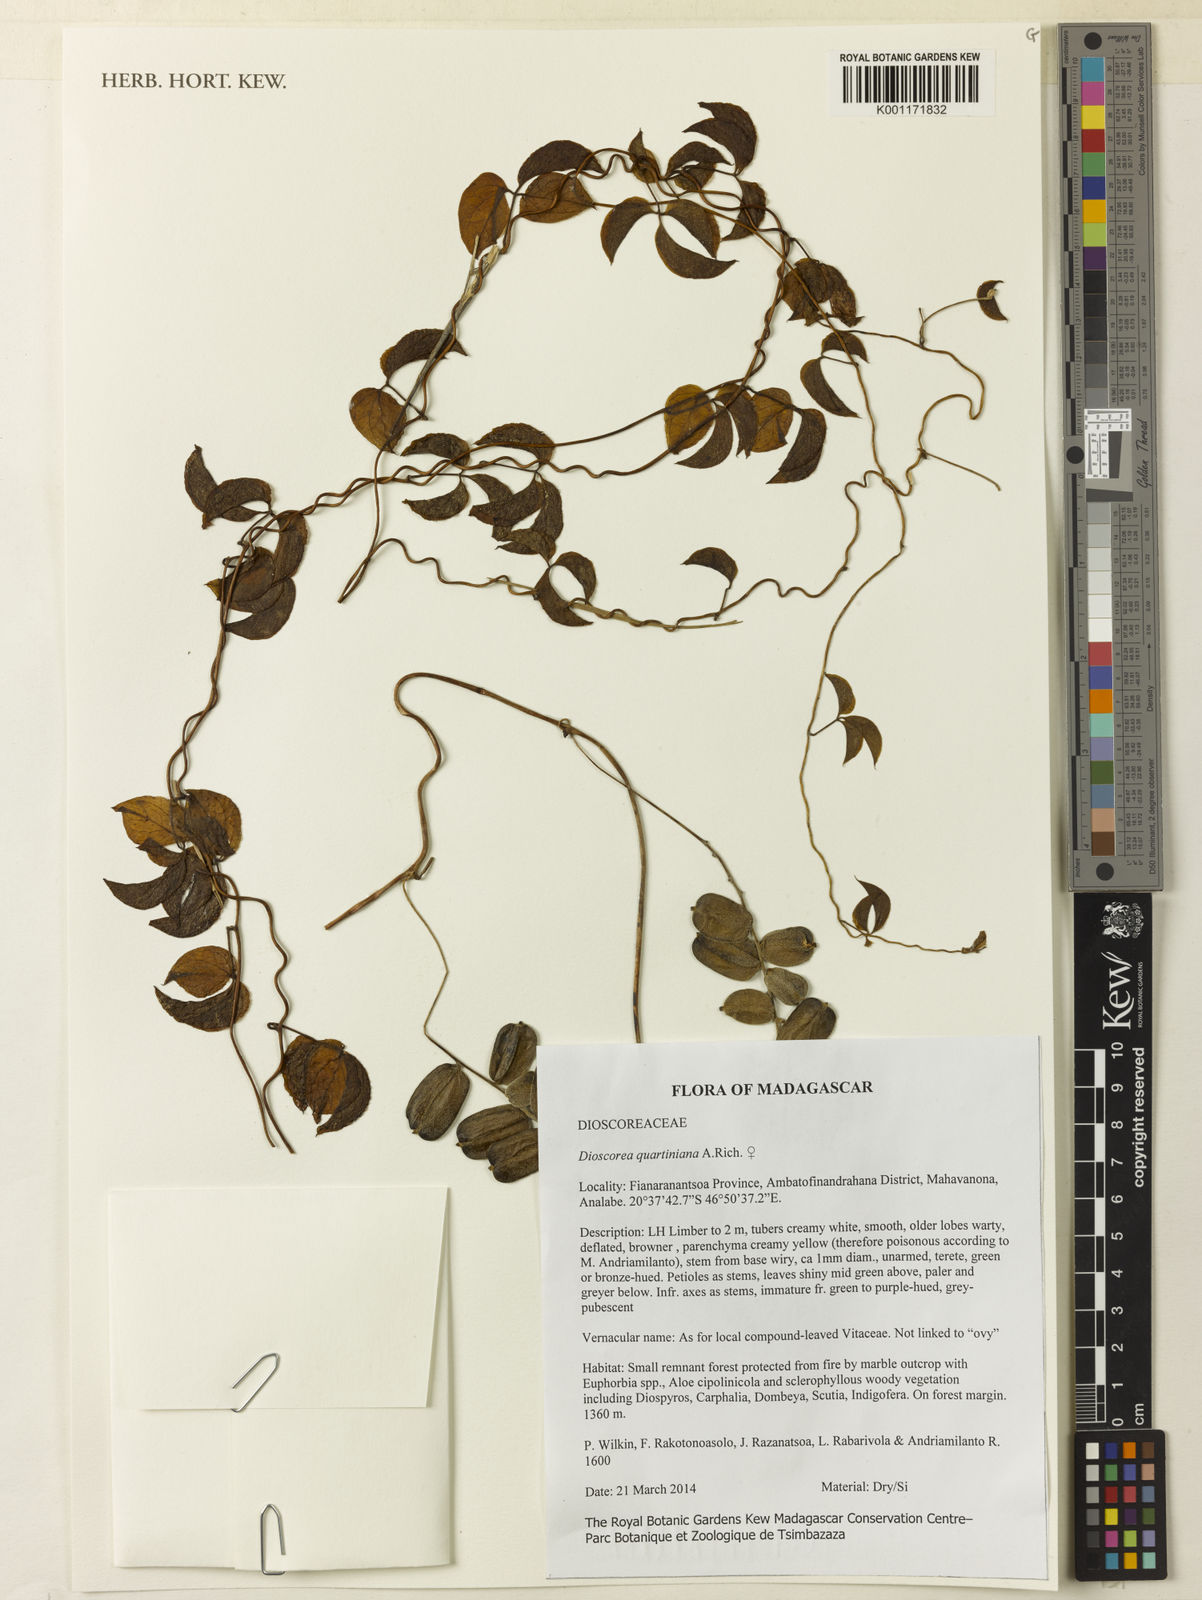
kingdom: Plantae
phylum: Tracheophyta
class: Liliopsida
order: Dioscoreales
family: Dioscoreaceae
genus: Dioscorea
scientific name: Dioscorea quartiniana
